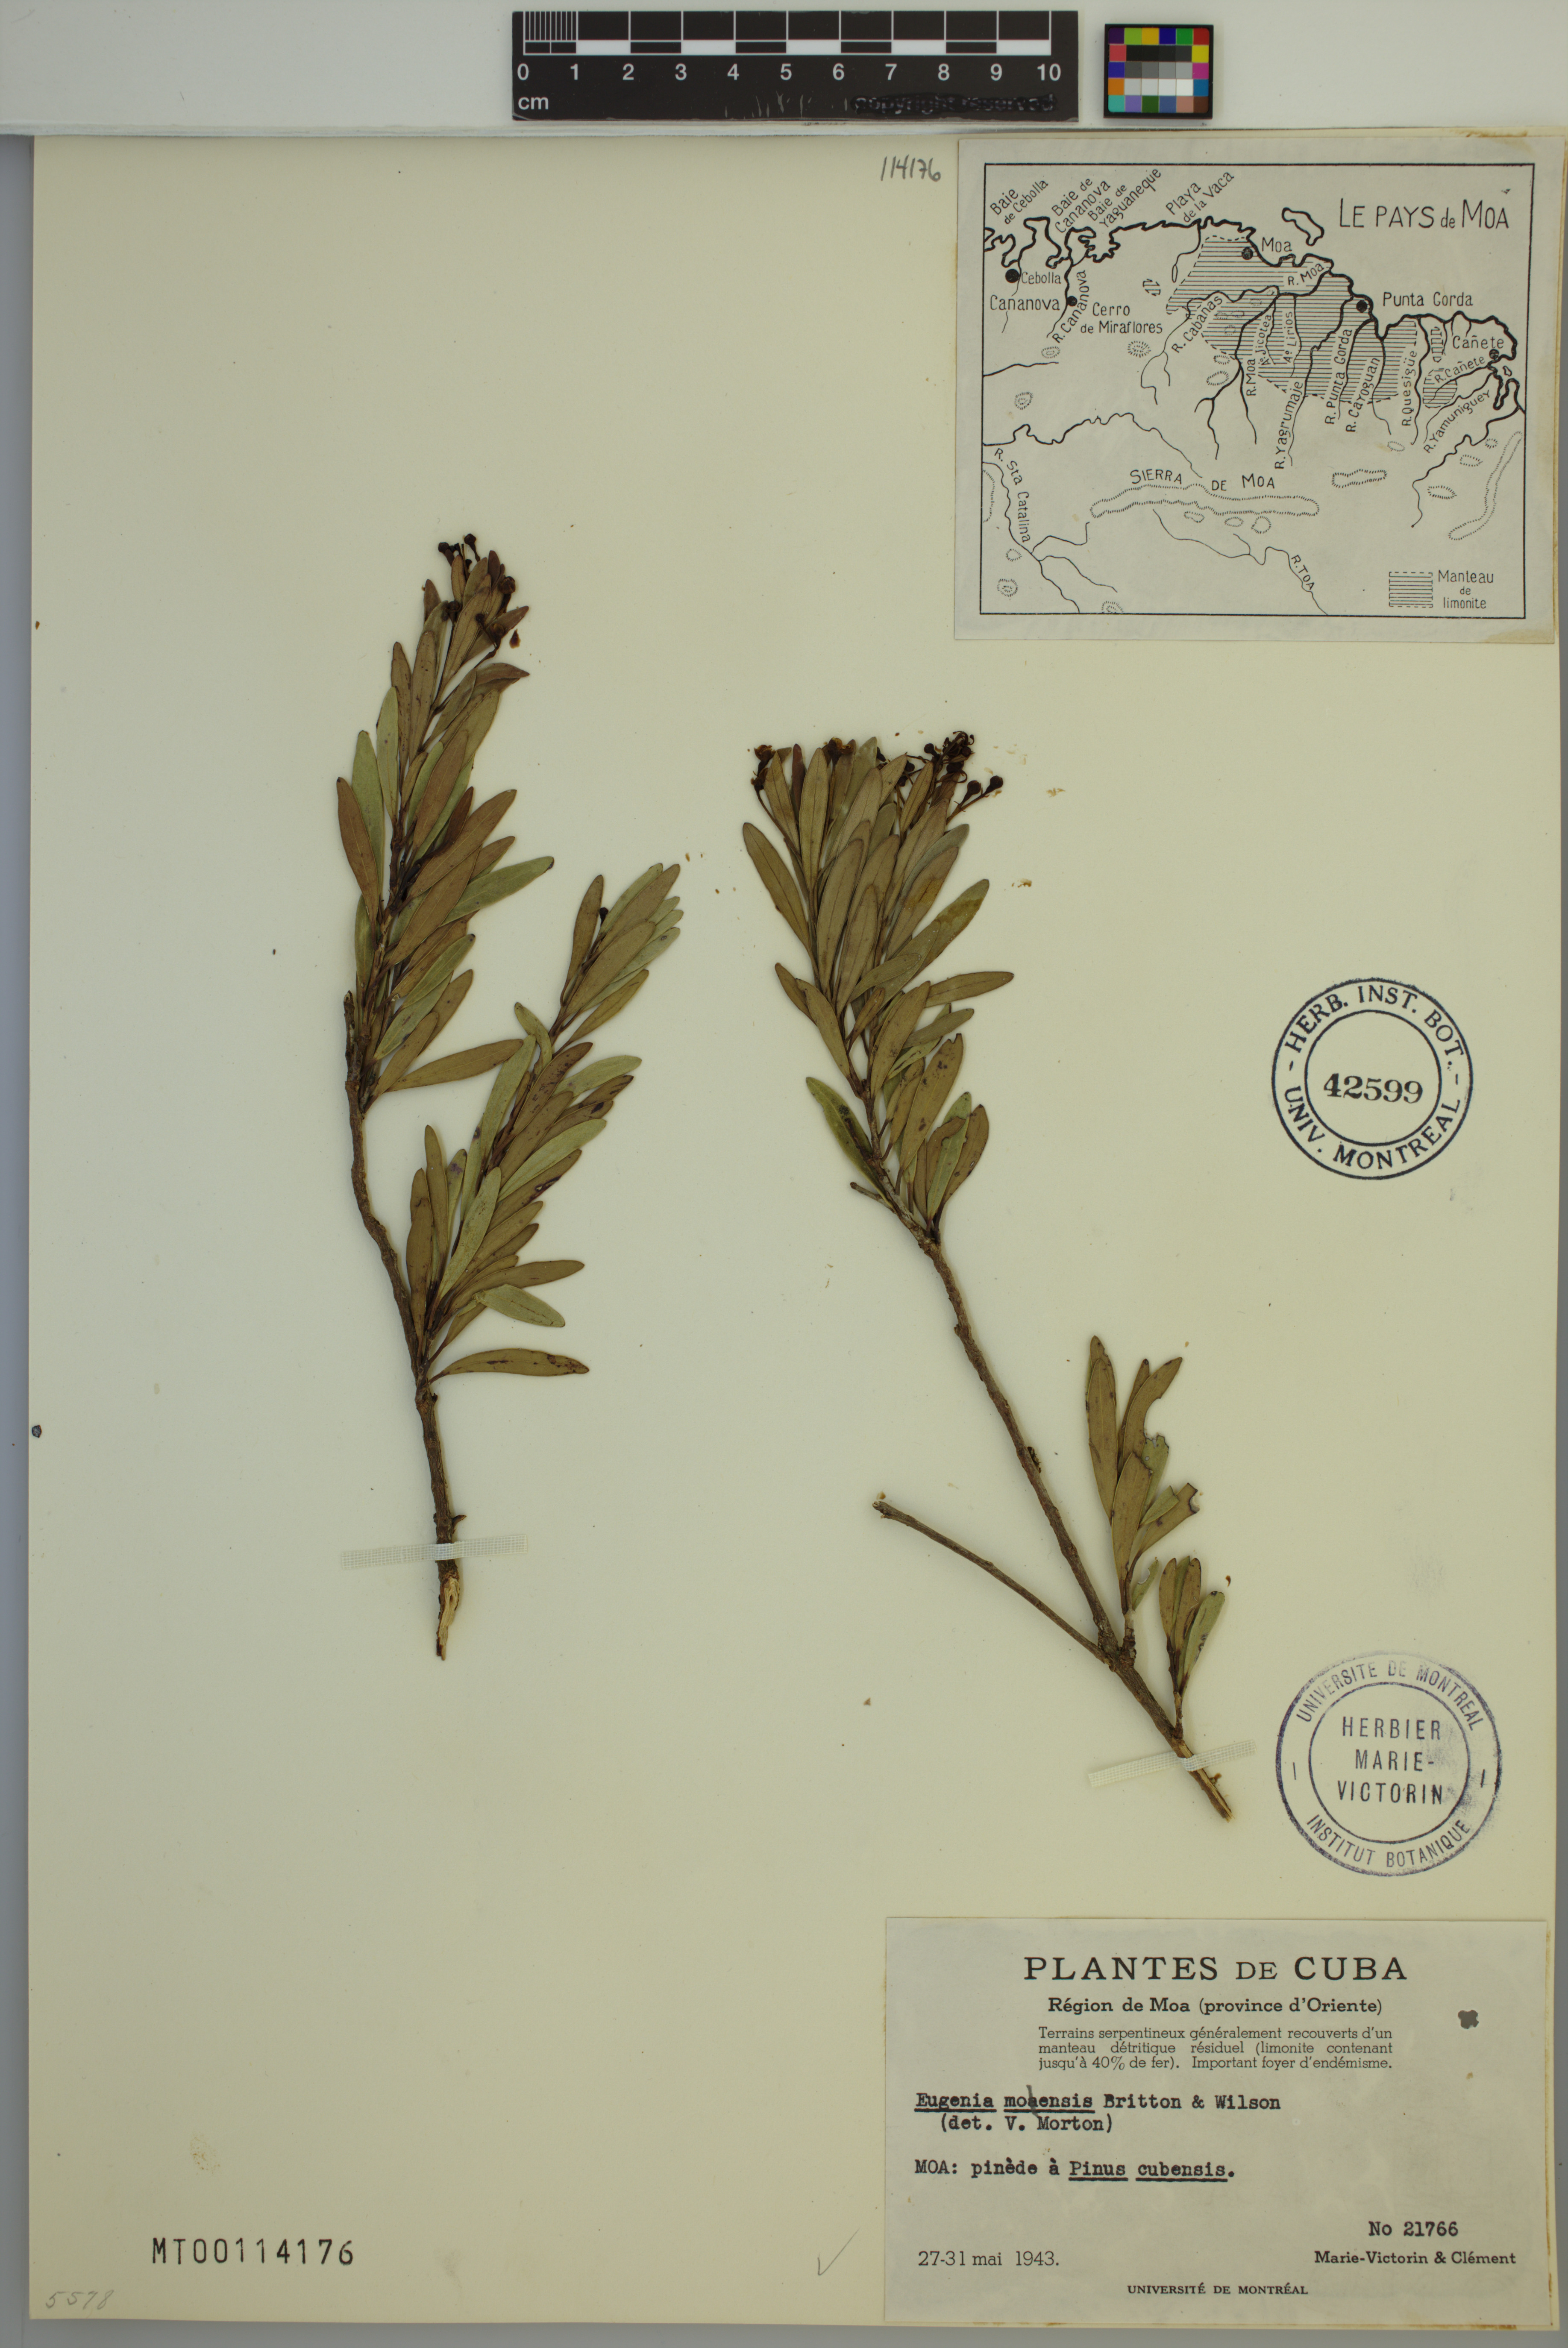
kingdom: Plantae
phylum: Tracheophyta
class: Magnoliopsida
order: Myrtales
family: Myrtaceae
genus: Eugenia
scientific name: Eugenia moensis
